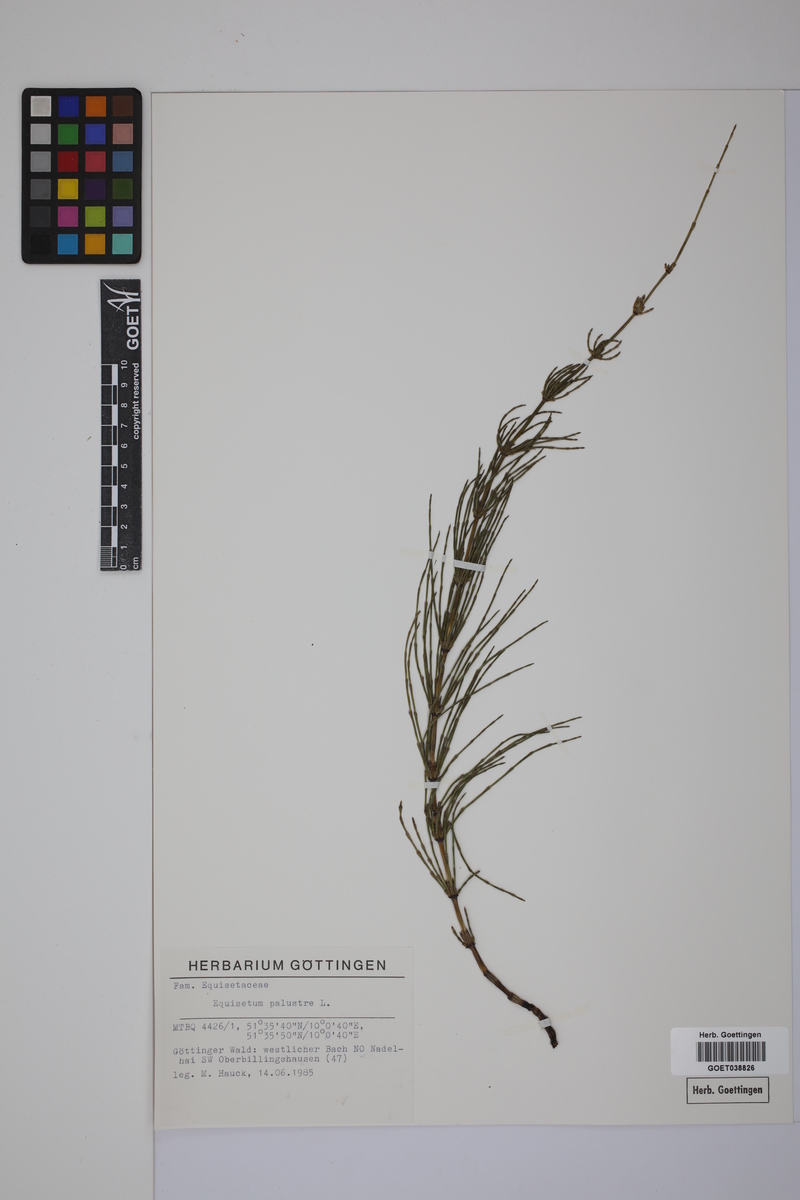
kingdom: Plantae
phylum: Tracheophyta
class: Polypodiopsida
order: Equisetales
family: Equisetaceae
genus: Equisetum
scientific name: Equisetum palustre
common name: Marsh horsetail
